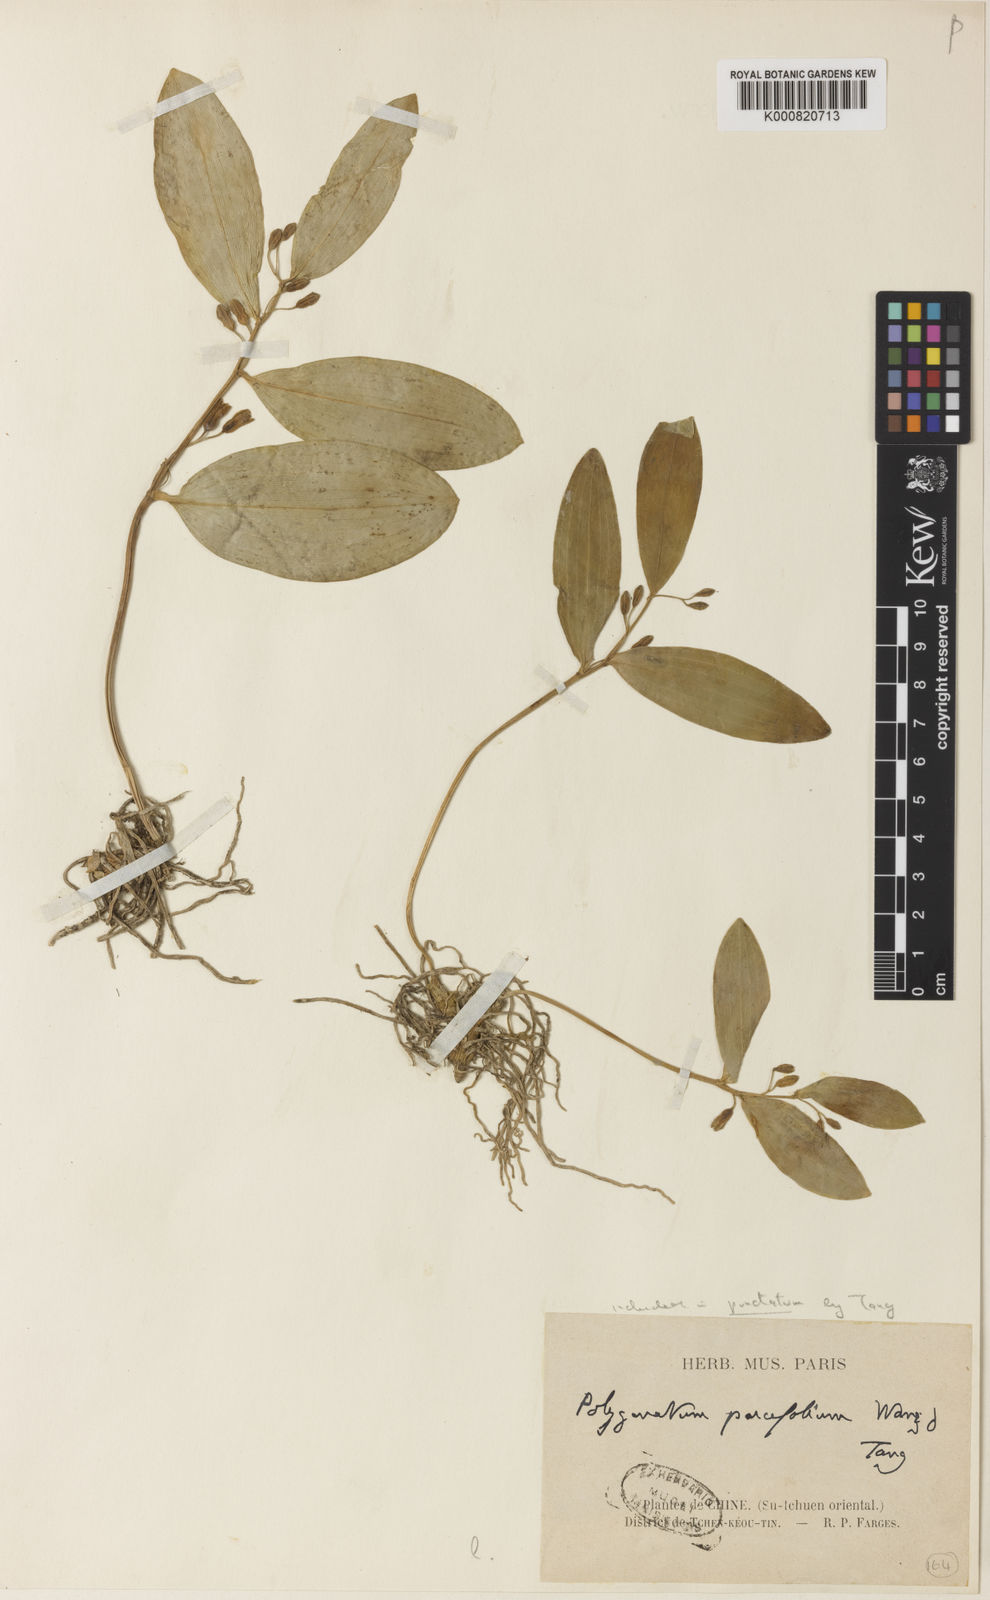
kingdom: Plantae
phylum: Tracheophyta
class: Liliopsida
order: Asparagales
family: Asparagaceae
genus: Polygonatum
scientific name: Polygonatum punctatum
